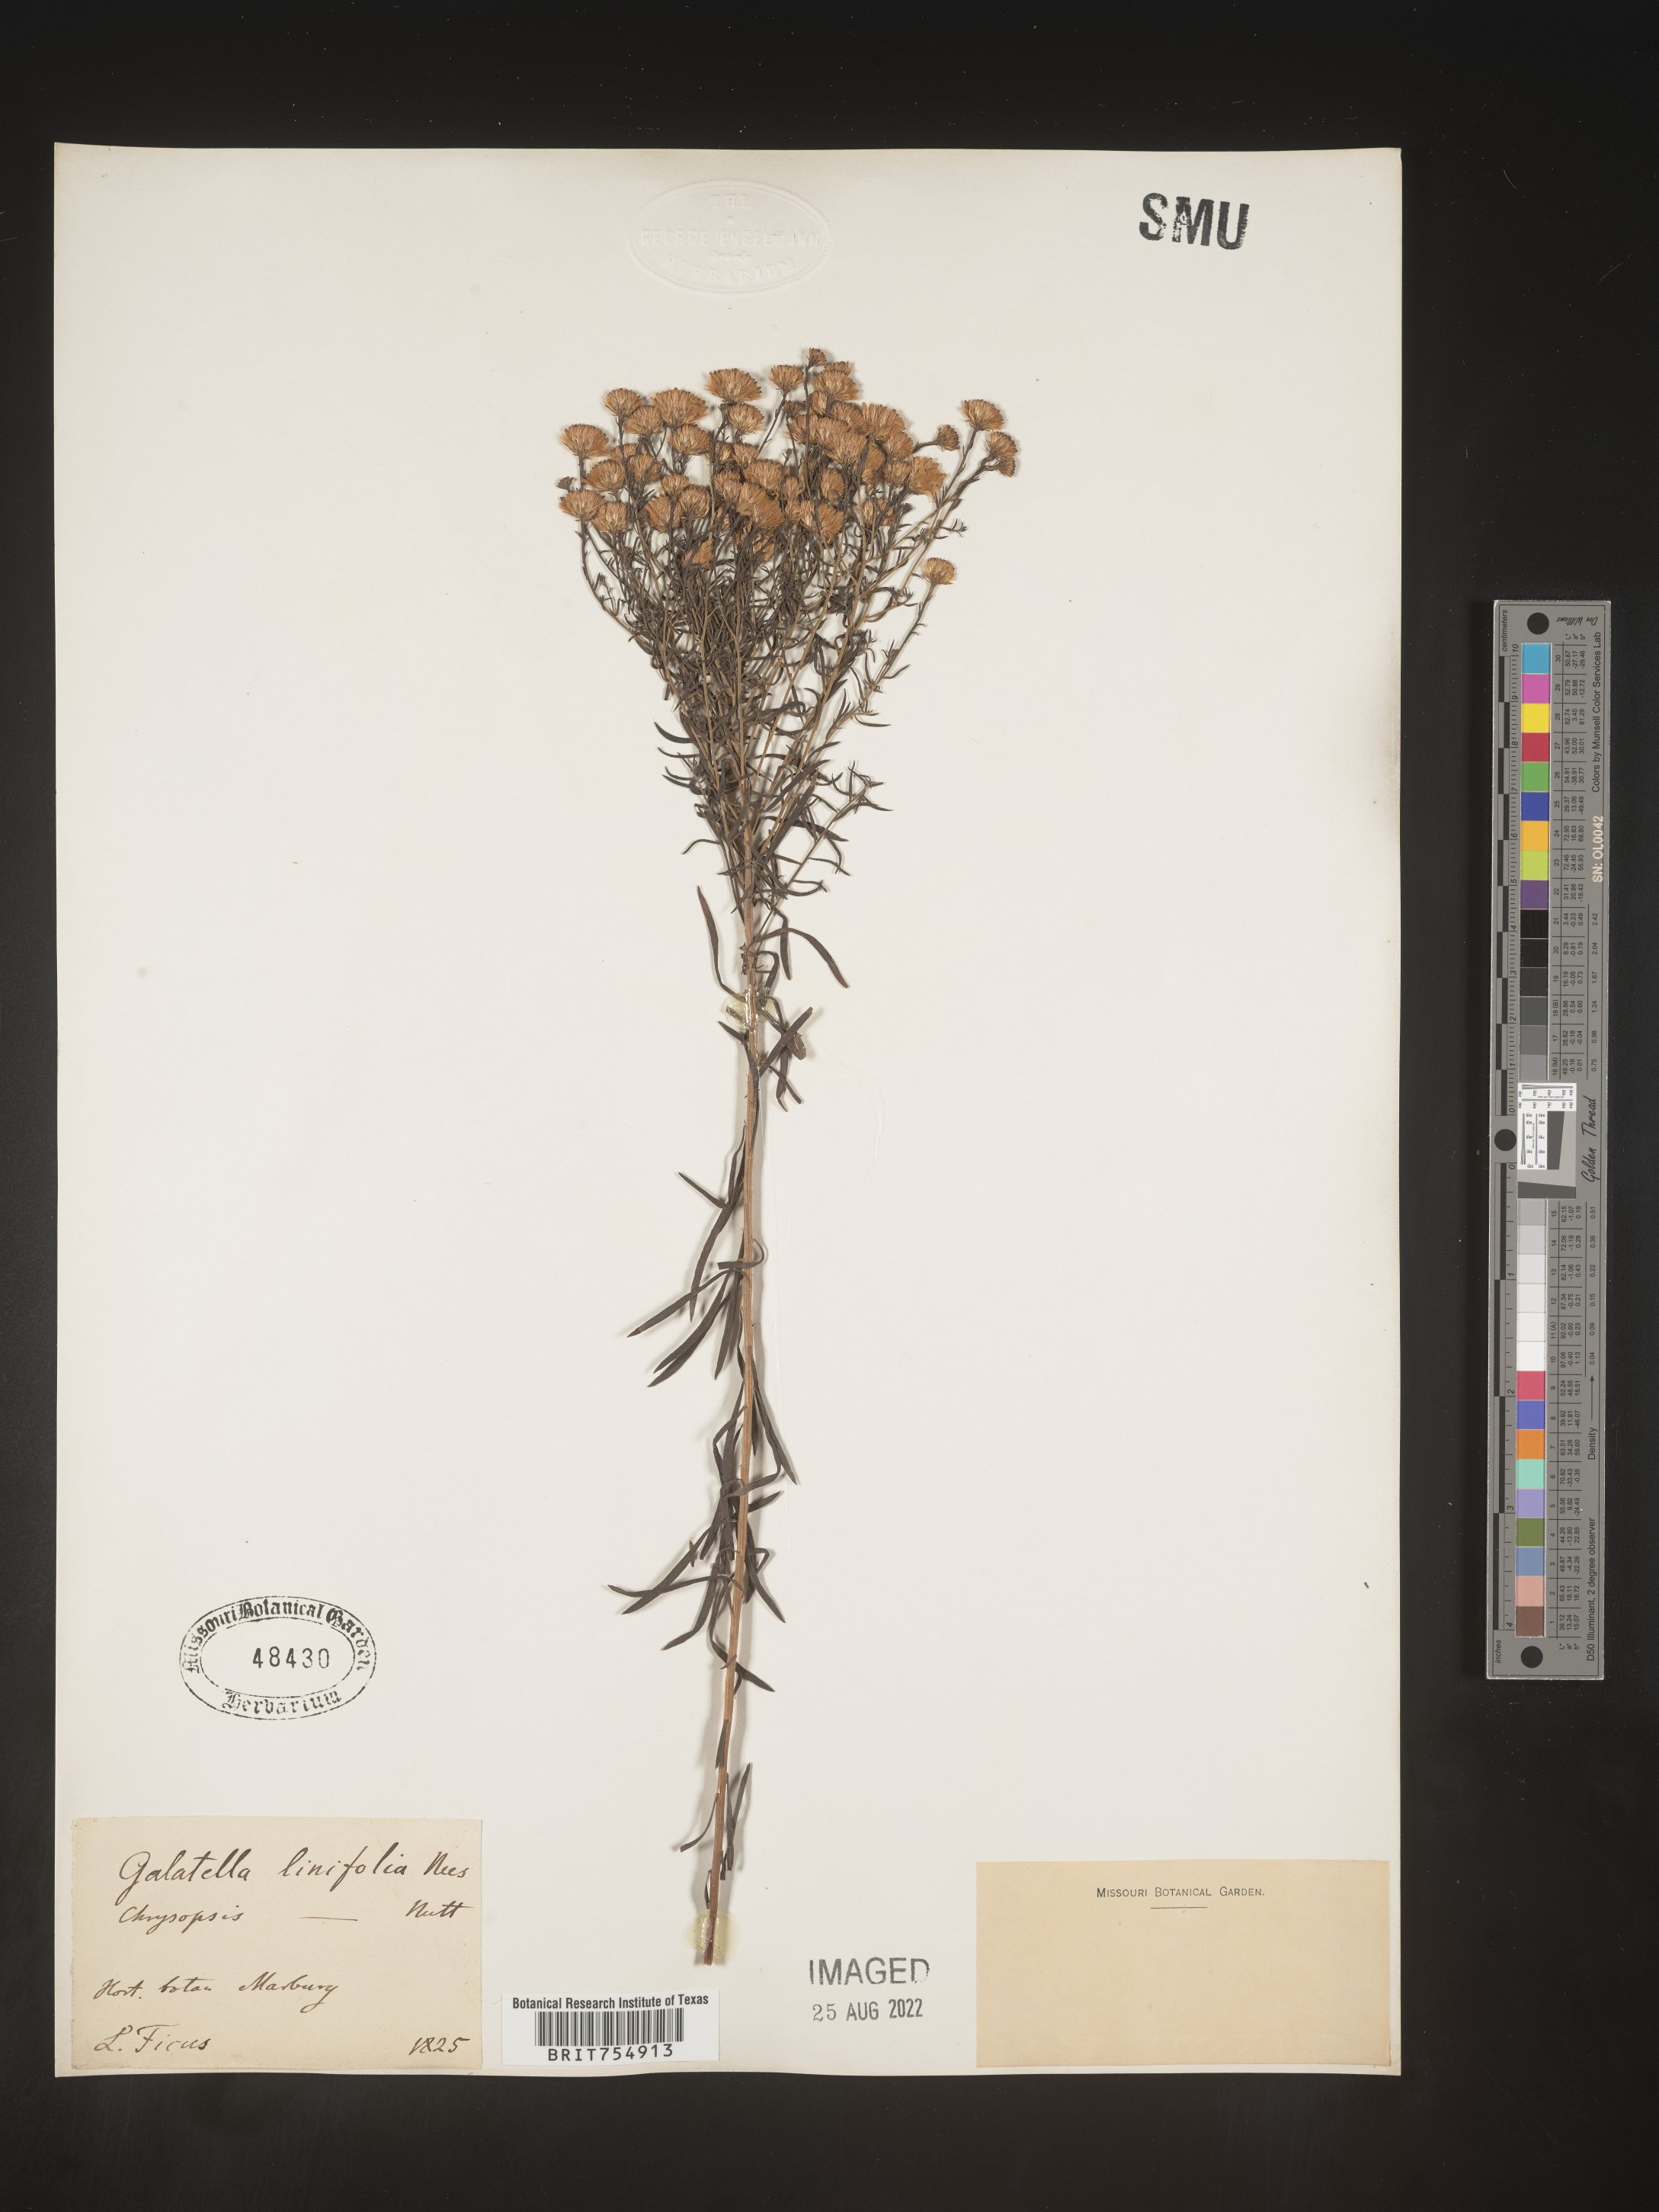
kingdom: Plantae
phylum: Tracheophyta
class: Magnoliopsida
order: Asterales
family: Asteraceae
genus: Symphyotrichum
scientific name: Symphyotrichum
